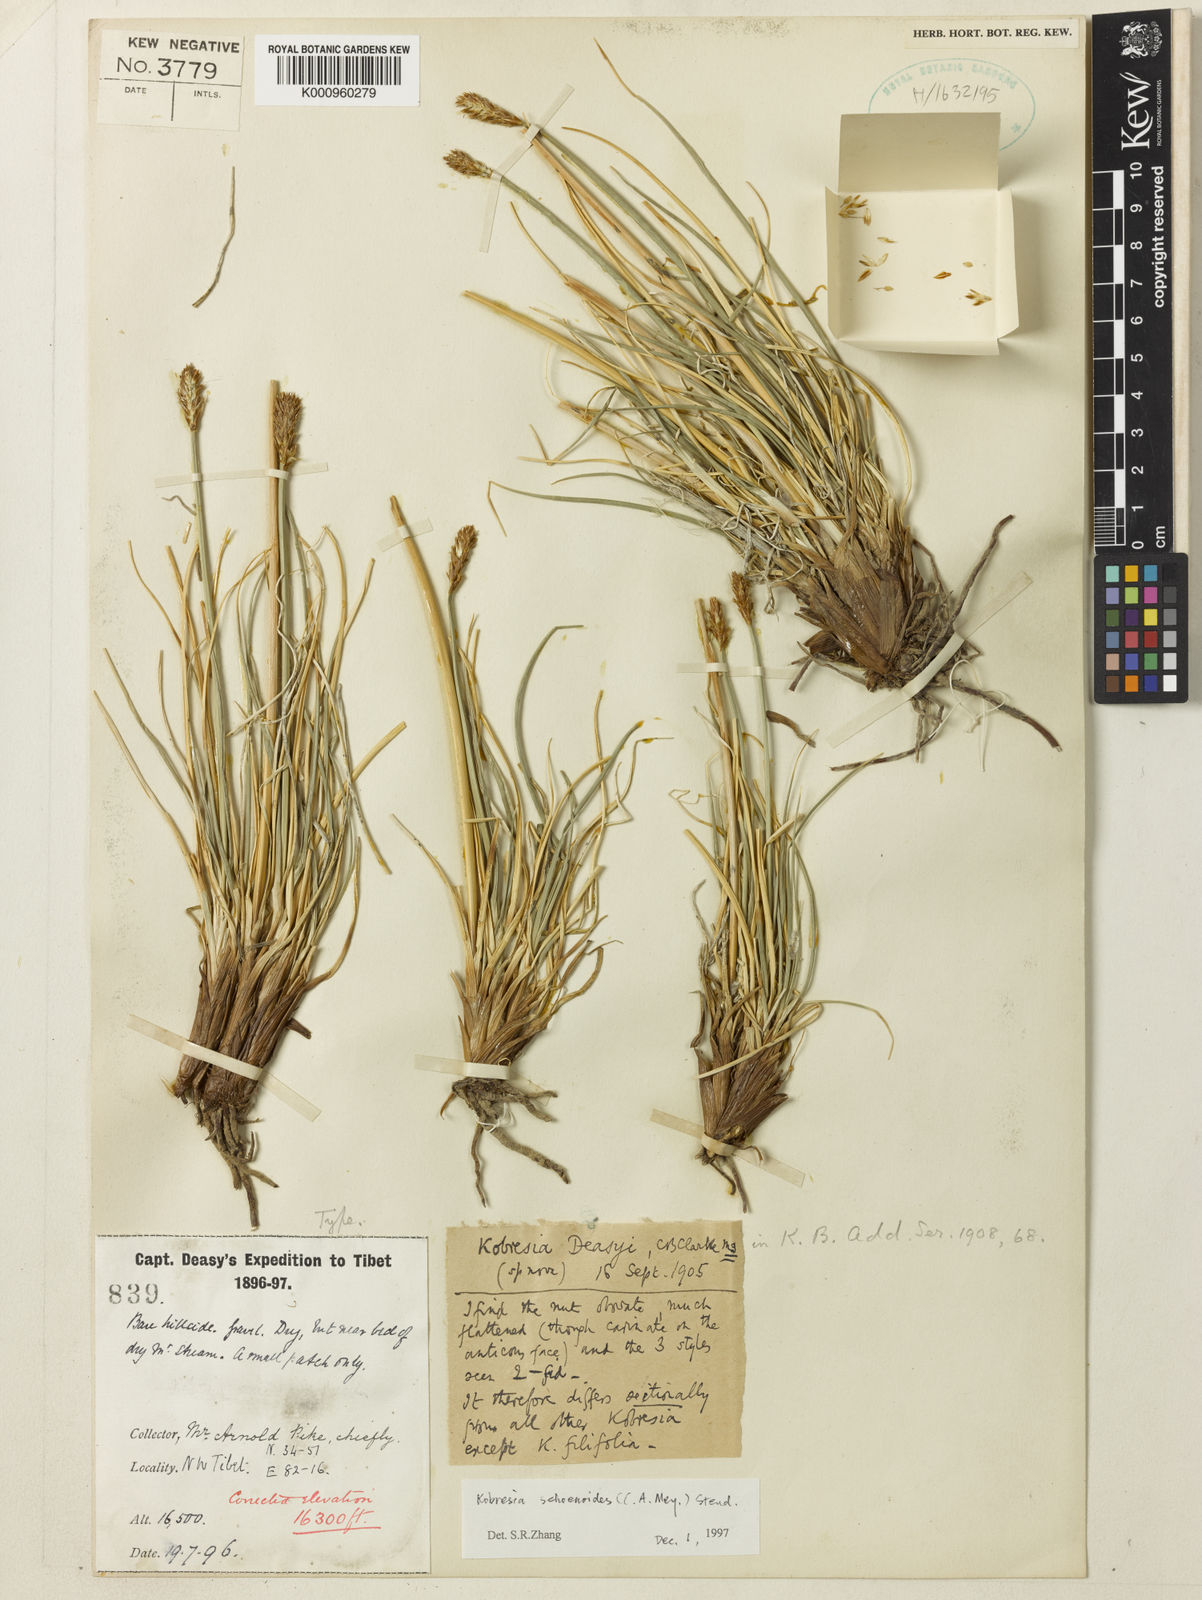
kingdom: Plantae
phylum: Tracheophyta
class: Liliopsida
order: Poales
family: Cyperaceae
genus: Carex
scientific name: Carex
